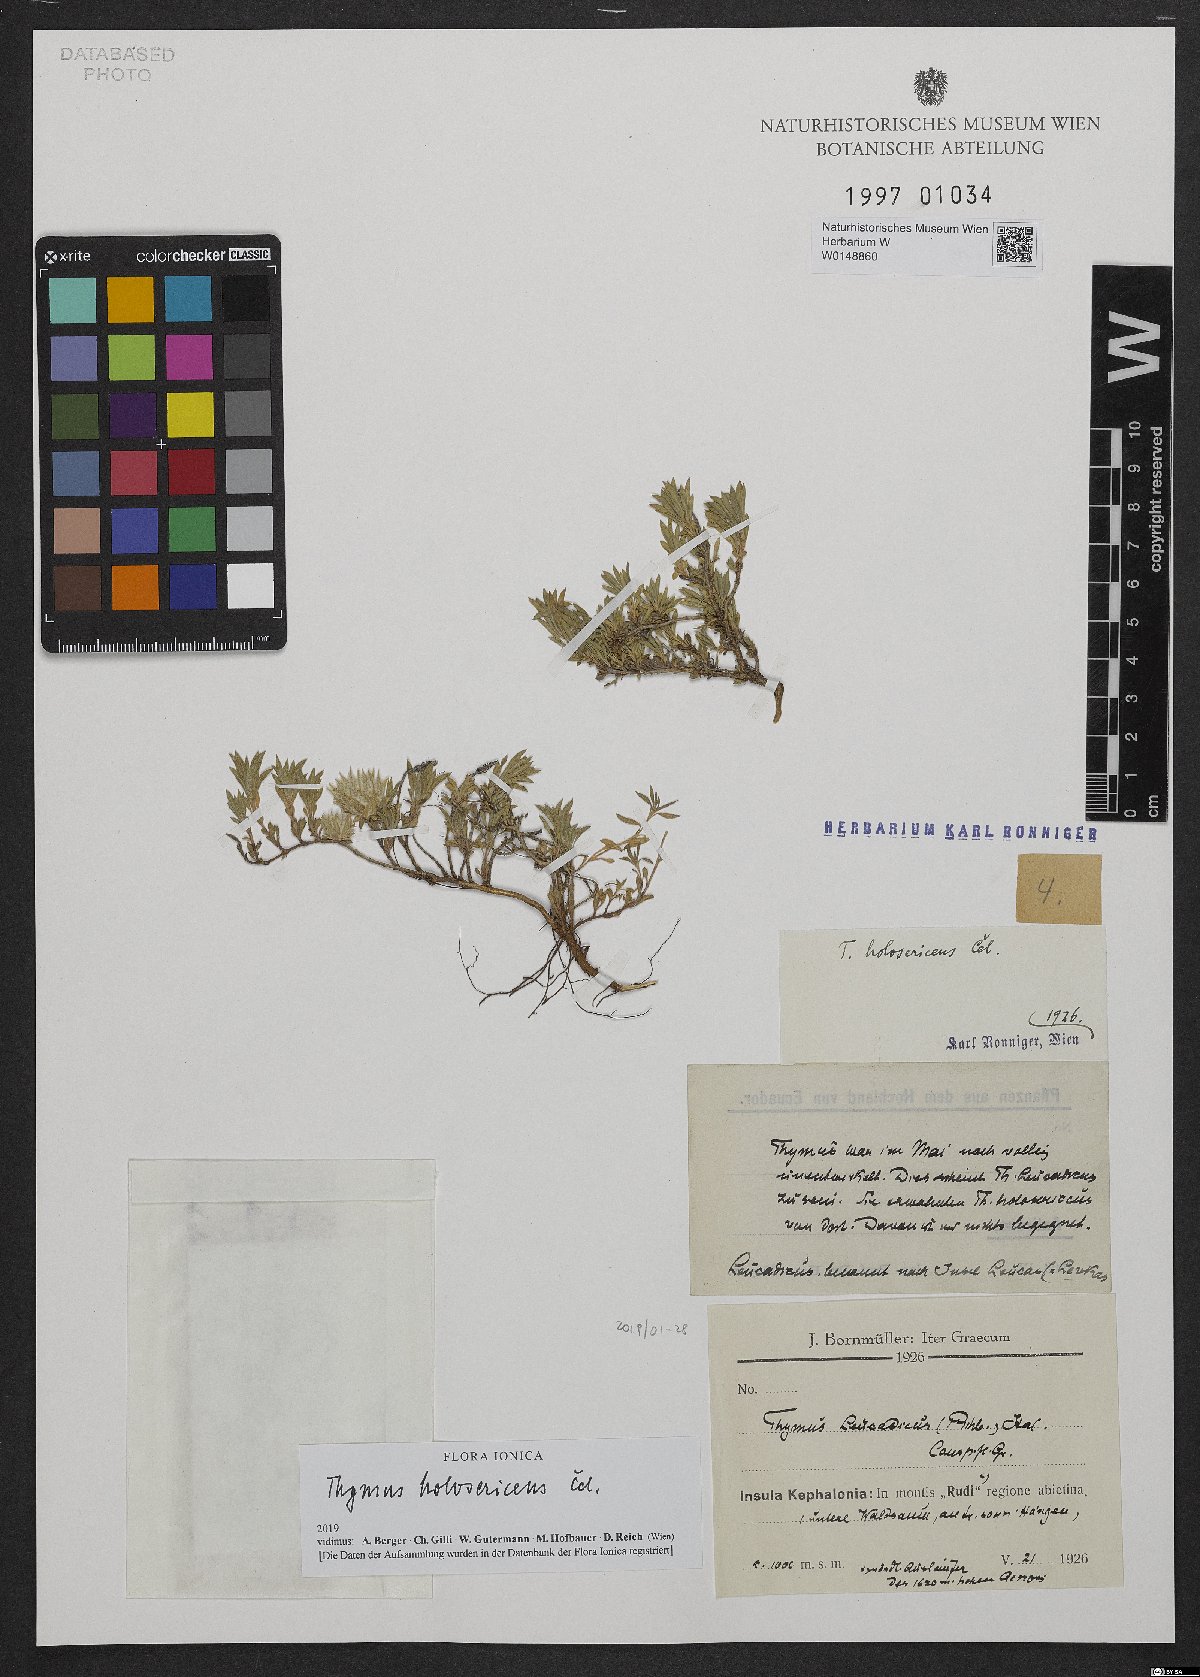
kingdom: Plantae
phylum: Tracheophyta
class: Magnoliopsida
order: Lamiales
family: Lamiaceae
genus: Thymus
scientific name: Thymus holosericeus
